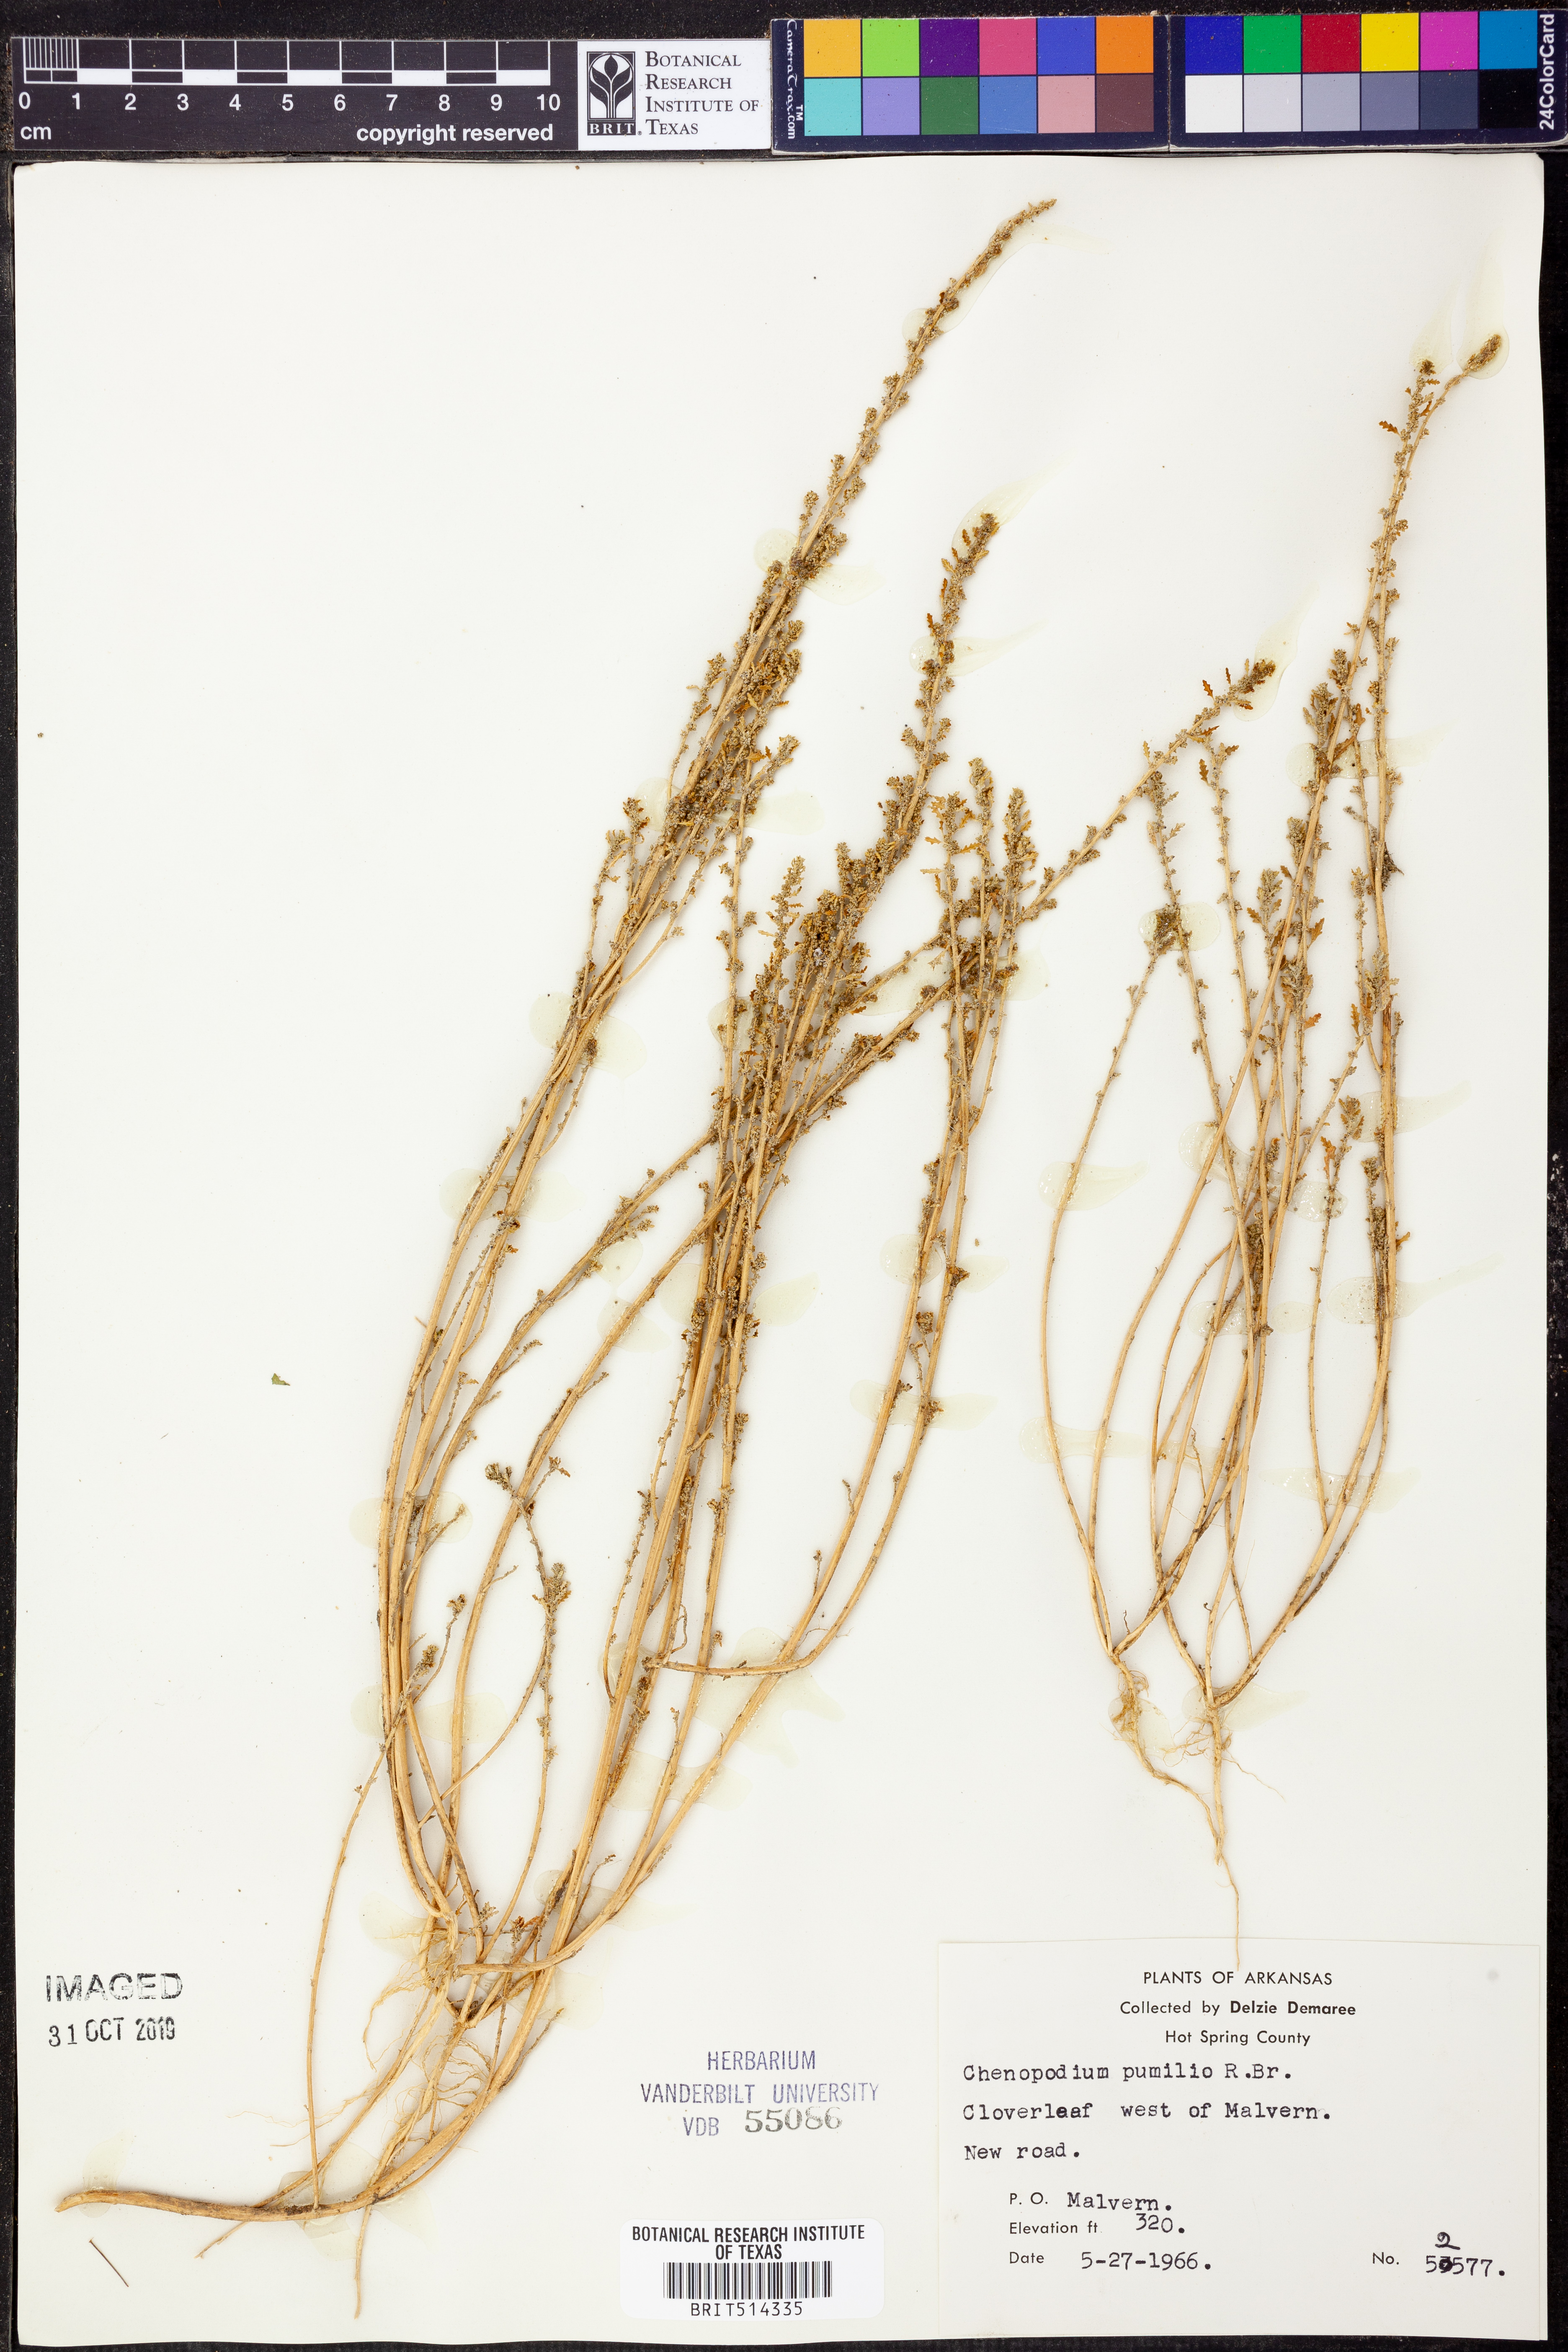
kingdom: Plantae
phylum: Tracheophyta
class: Magnoliopsida
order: Caryophyllales
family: Amaranthaceae
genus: Dysphania
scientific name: Dysphania pumilio
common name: Clammy goosefoot
